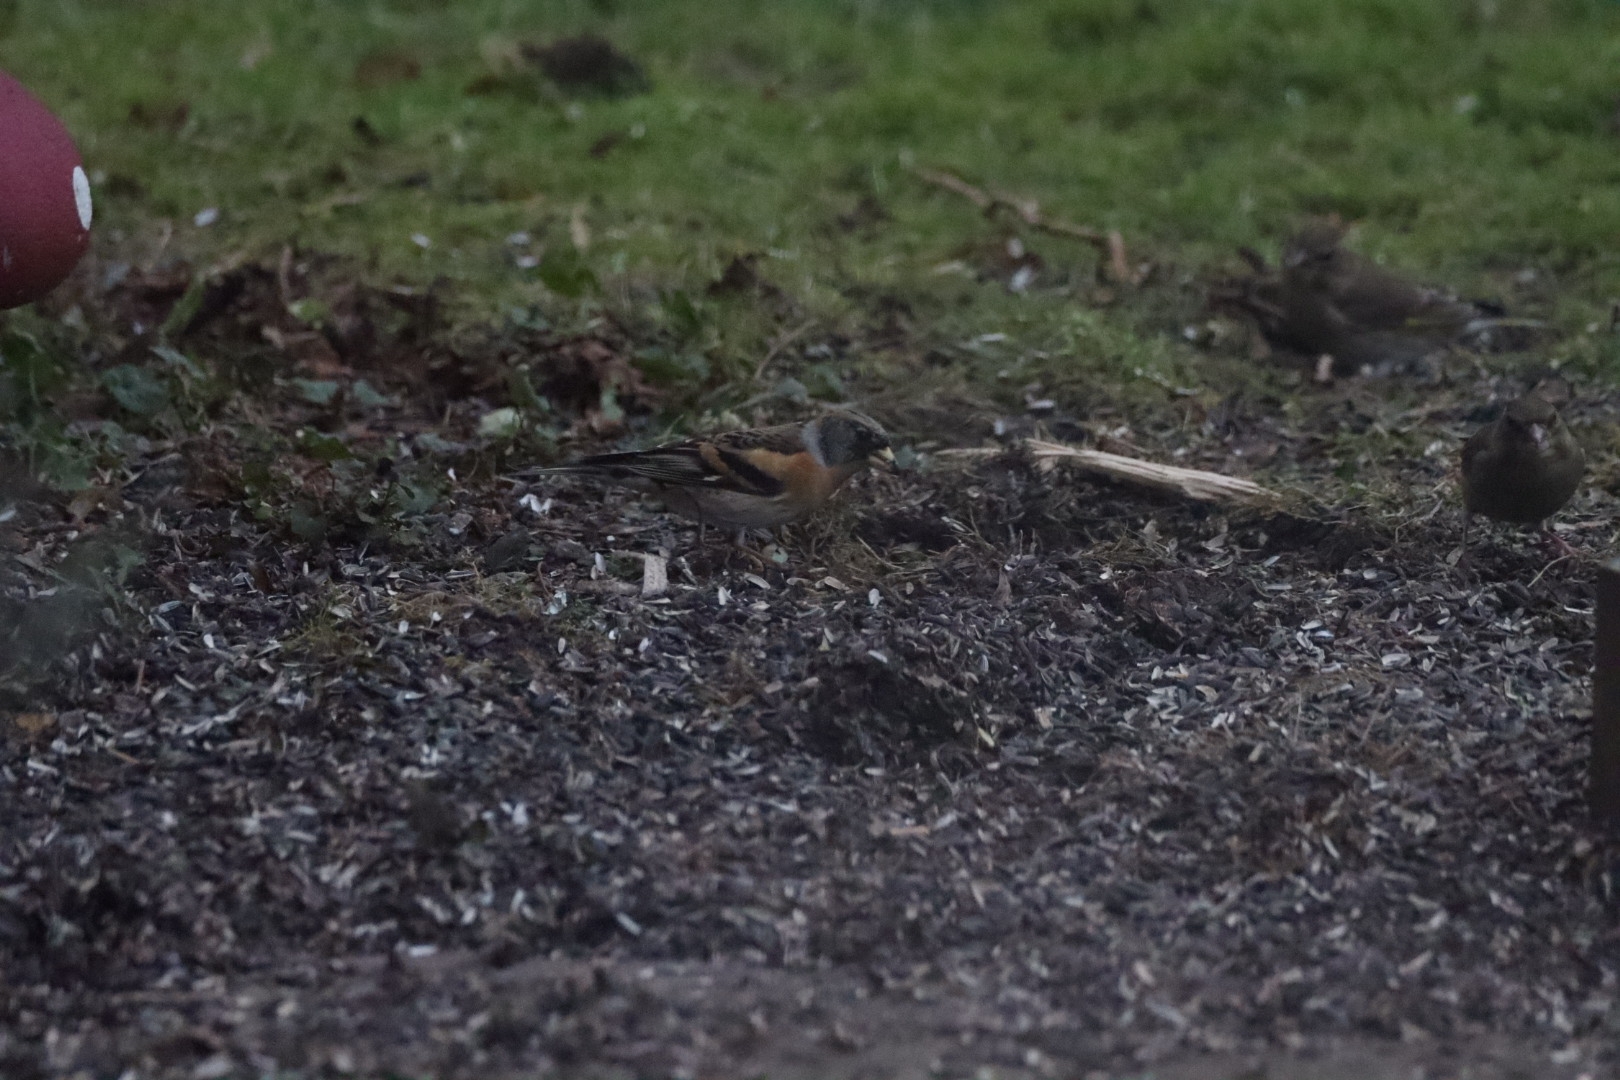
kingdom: Animalia
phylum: Chordata
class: Aves
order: Passeriformes
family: Fringillidae
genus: Fringilla
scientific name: Fringilla montifringilla
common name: Kvækerfinke
